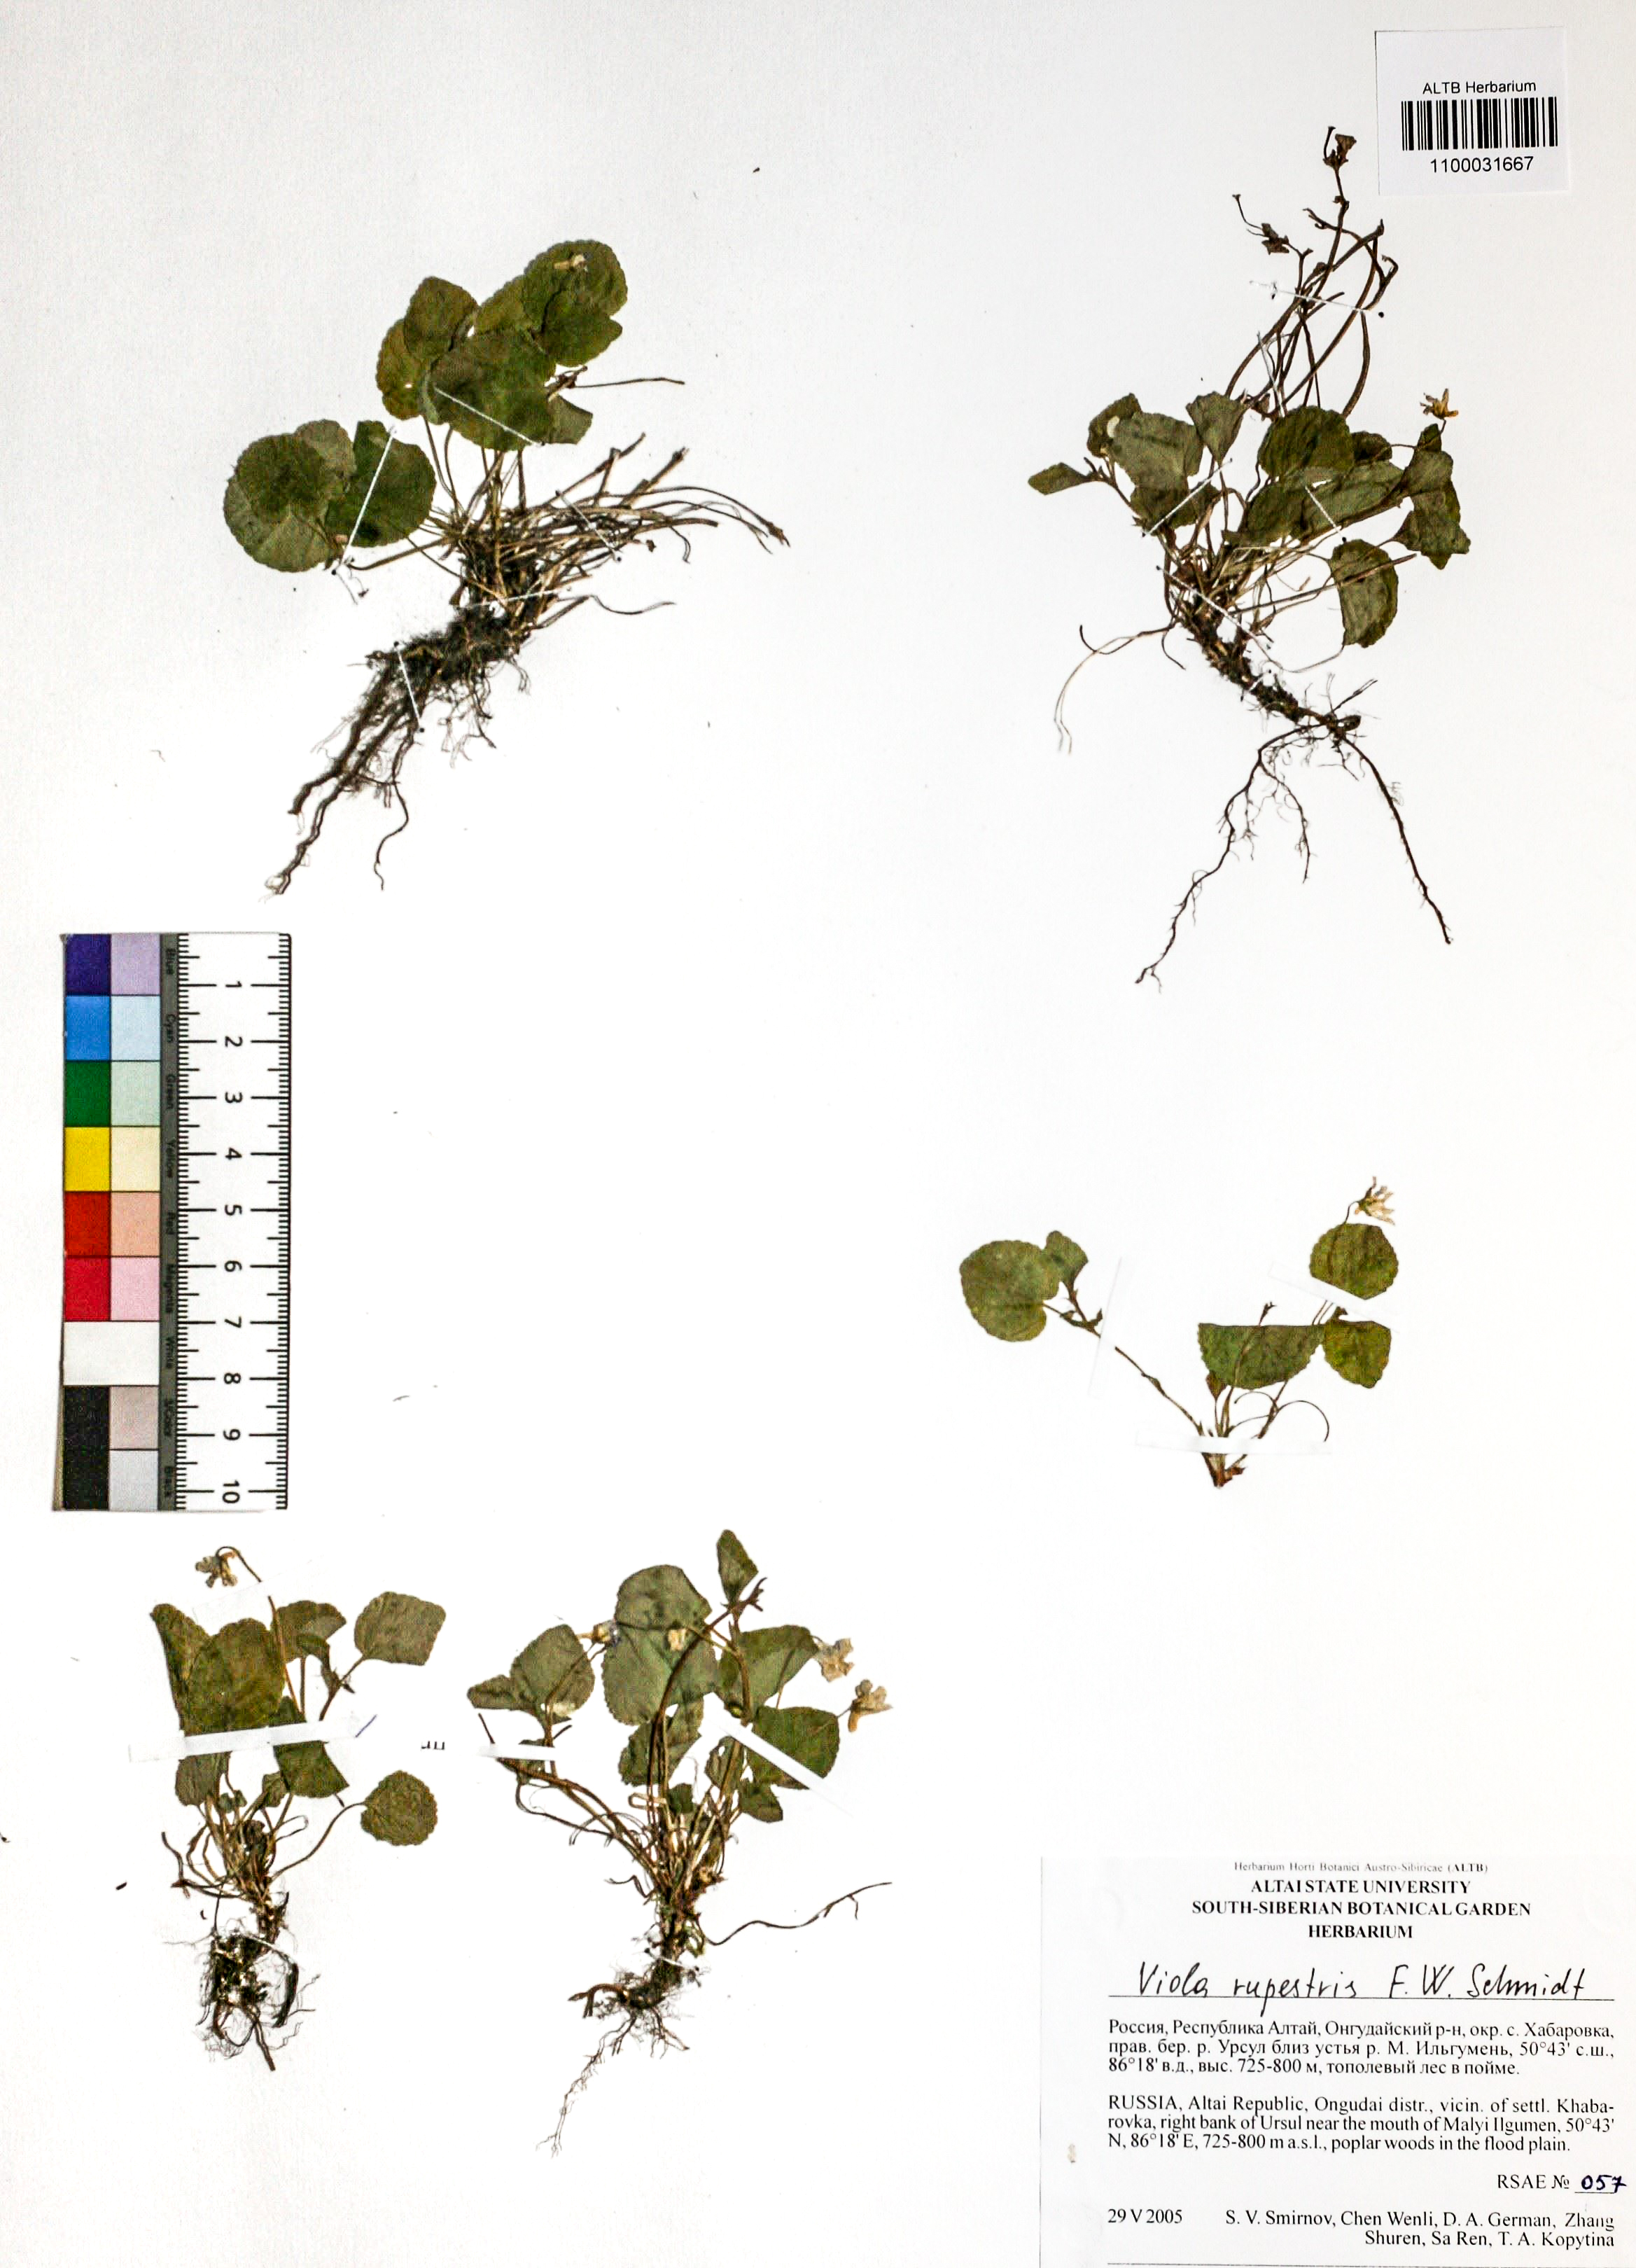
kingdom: Plantae
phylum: Tracheophyta
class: Magnoliopsida
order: Malpighiales
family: Violaceae
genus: Viola
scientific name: Viola rupestris
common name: Teesdale violet
